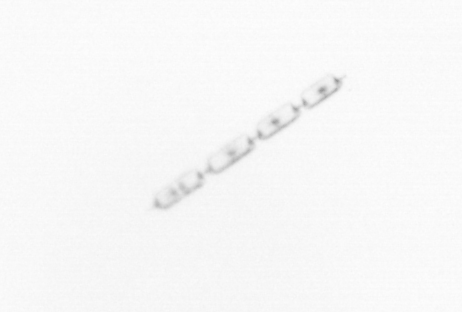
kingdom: Chromista
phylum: Ochrophyta
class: Bacillariophyceae
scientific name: Bacillariophyceae
